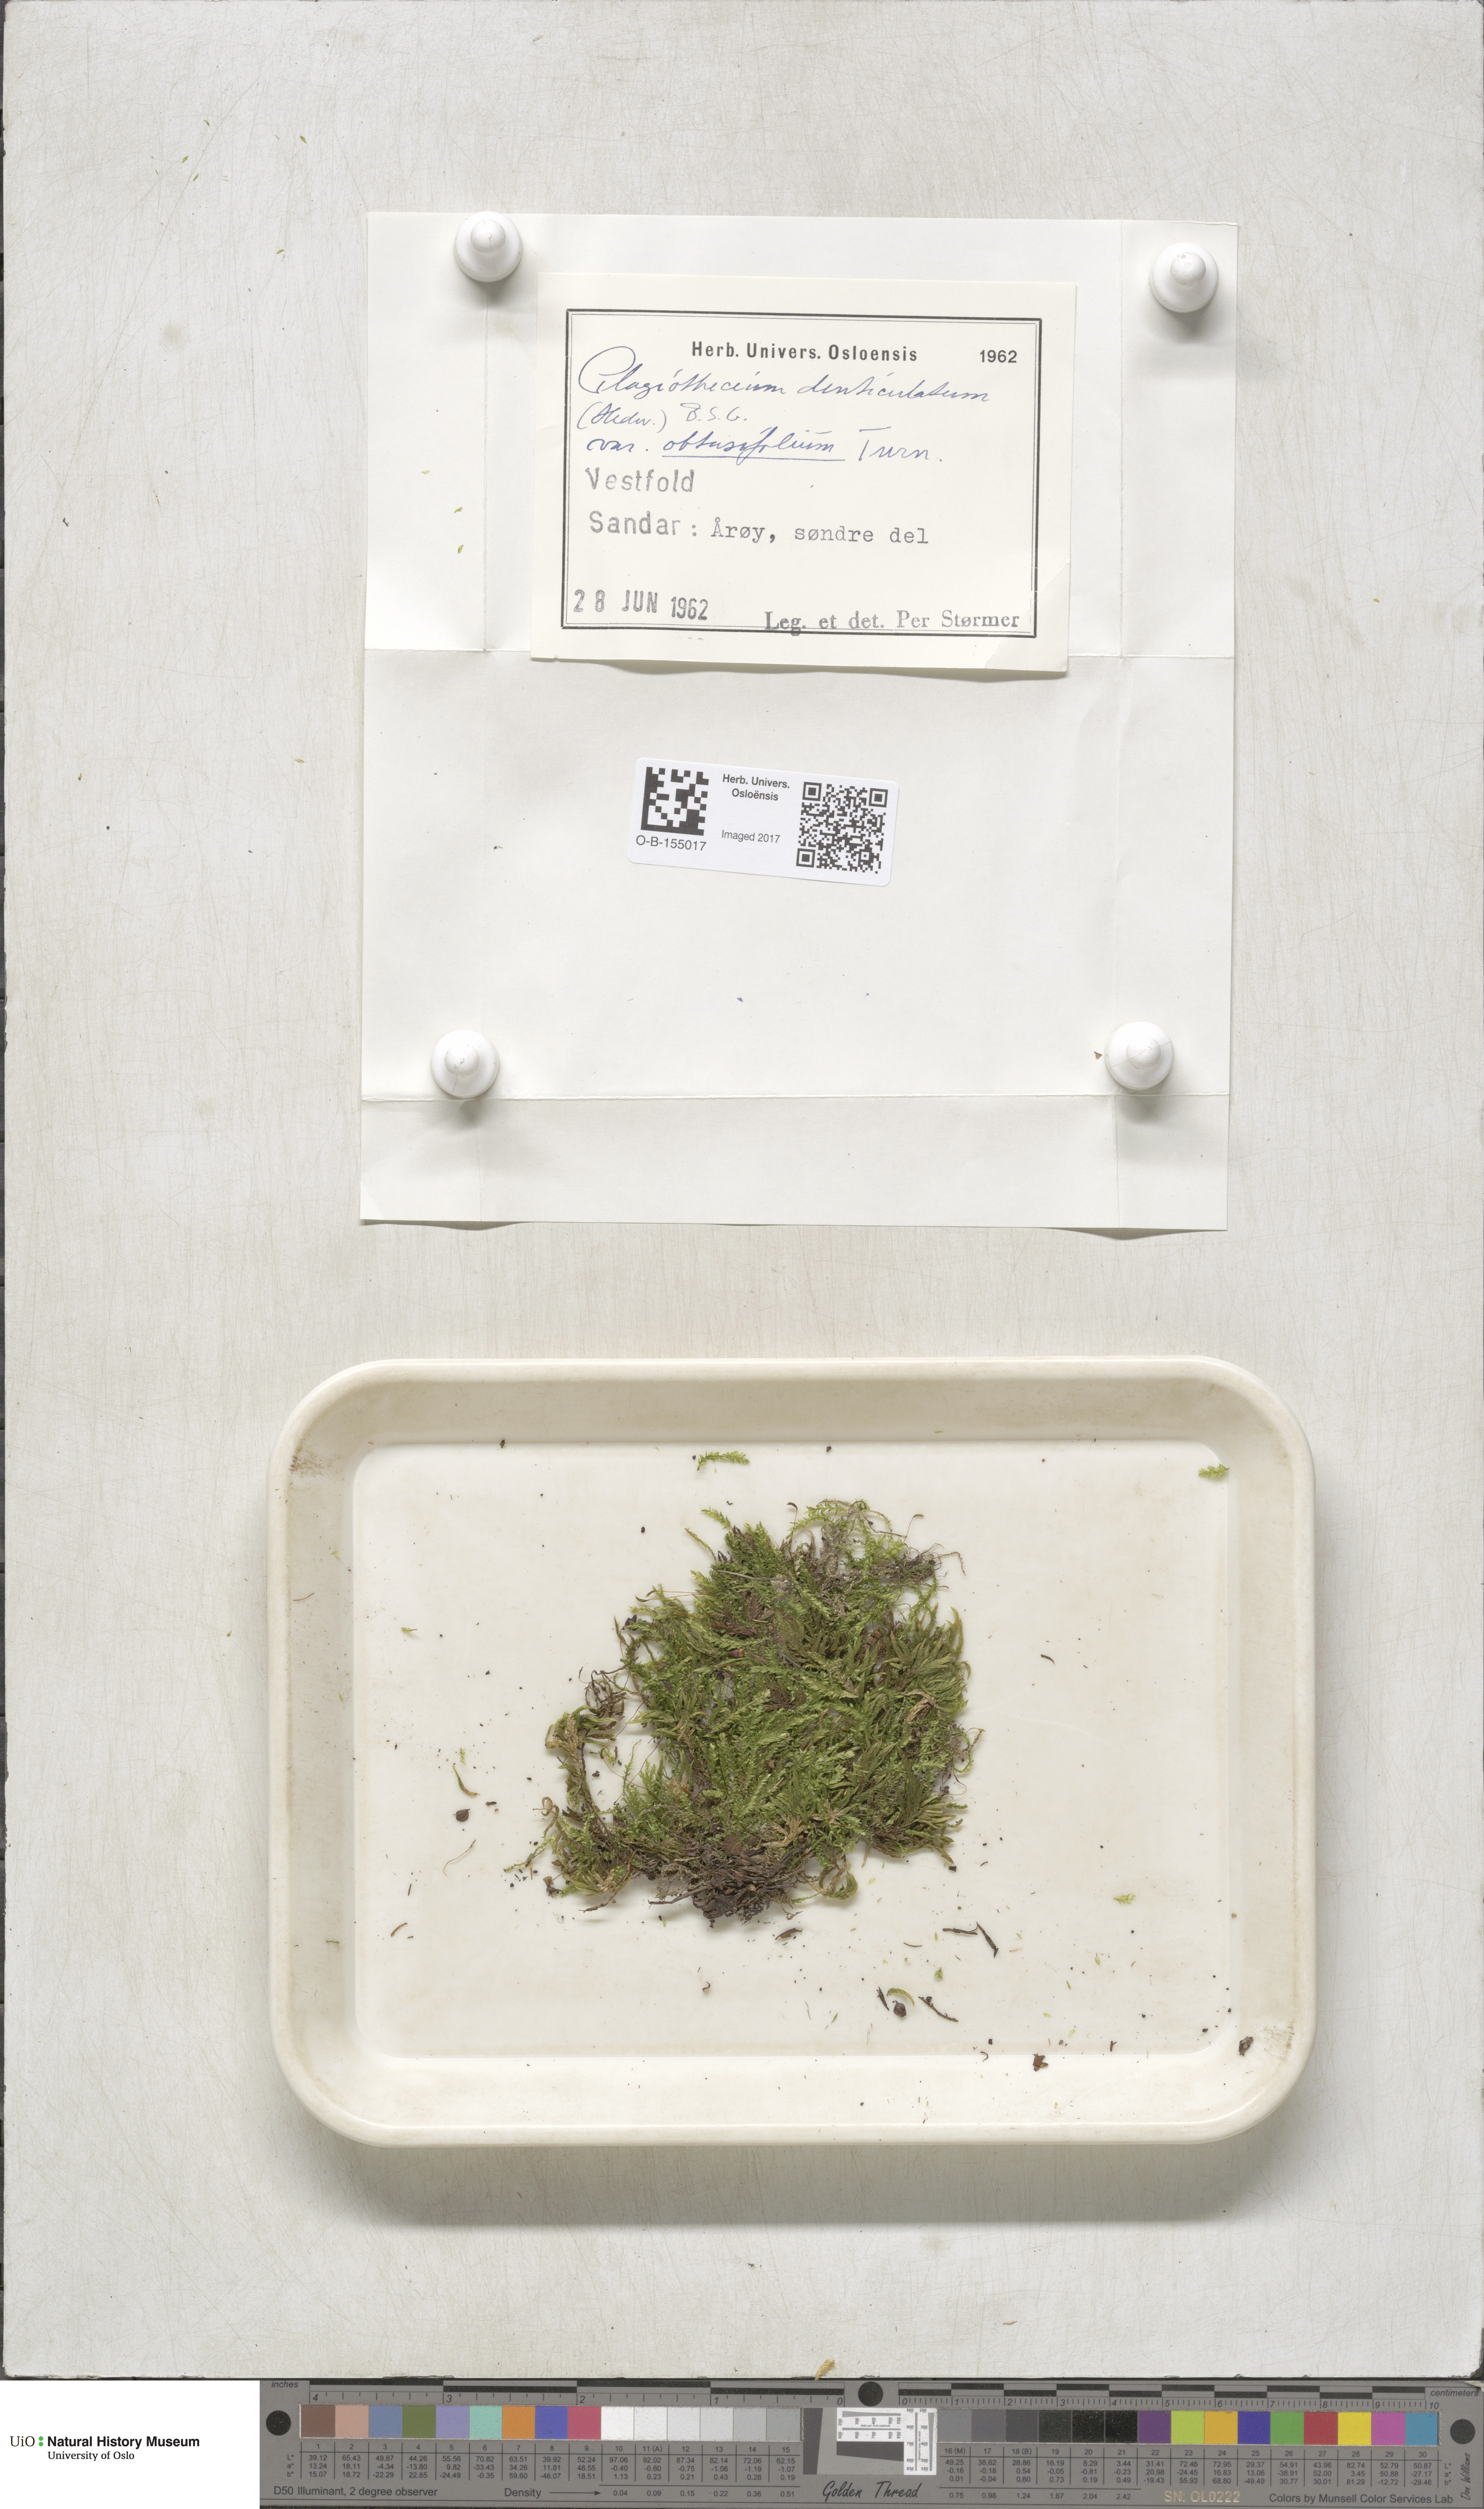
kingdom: Plantae
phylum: Bryophyta
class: Bryopsida
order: Hypnales
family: Plagiotheciaceae
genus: Plagiothecium
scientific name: Plagiothecium denticulatum
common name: Dented silk moss
